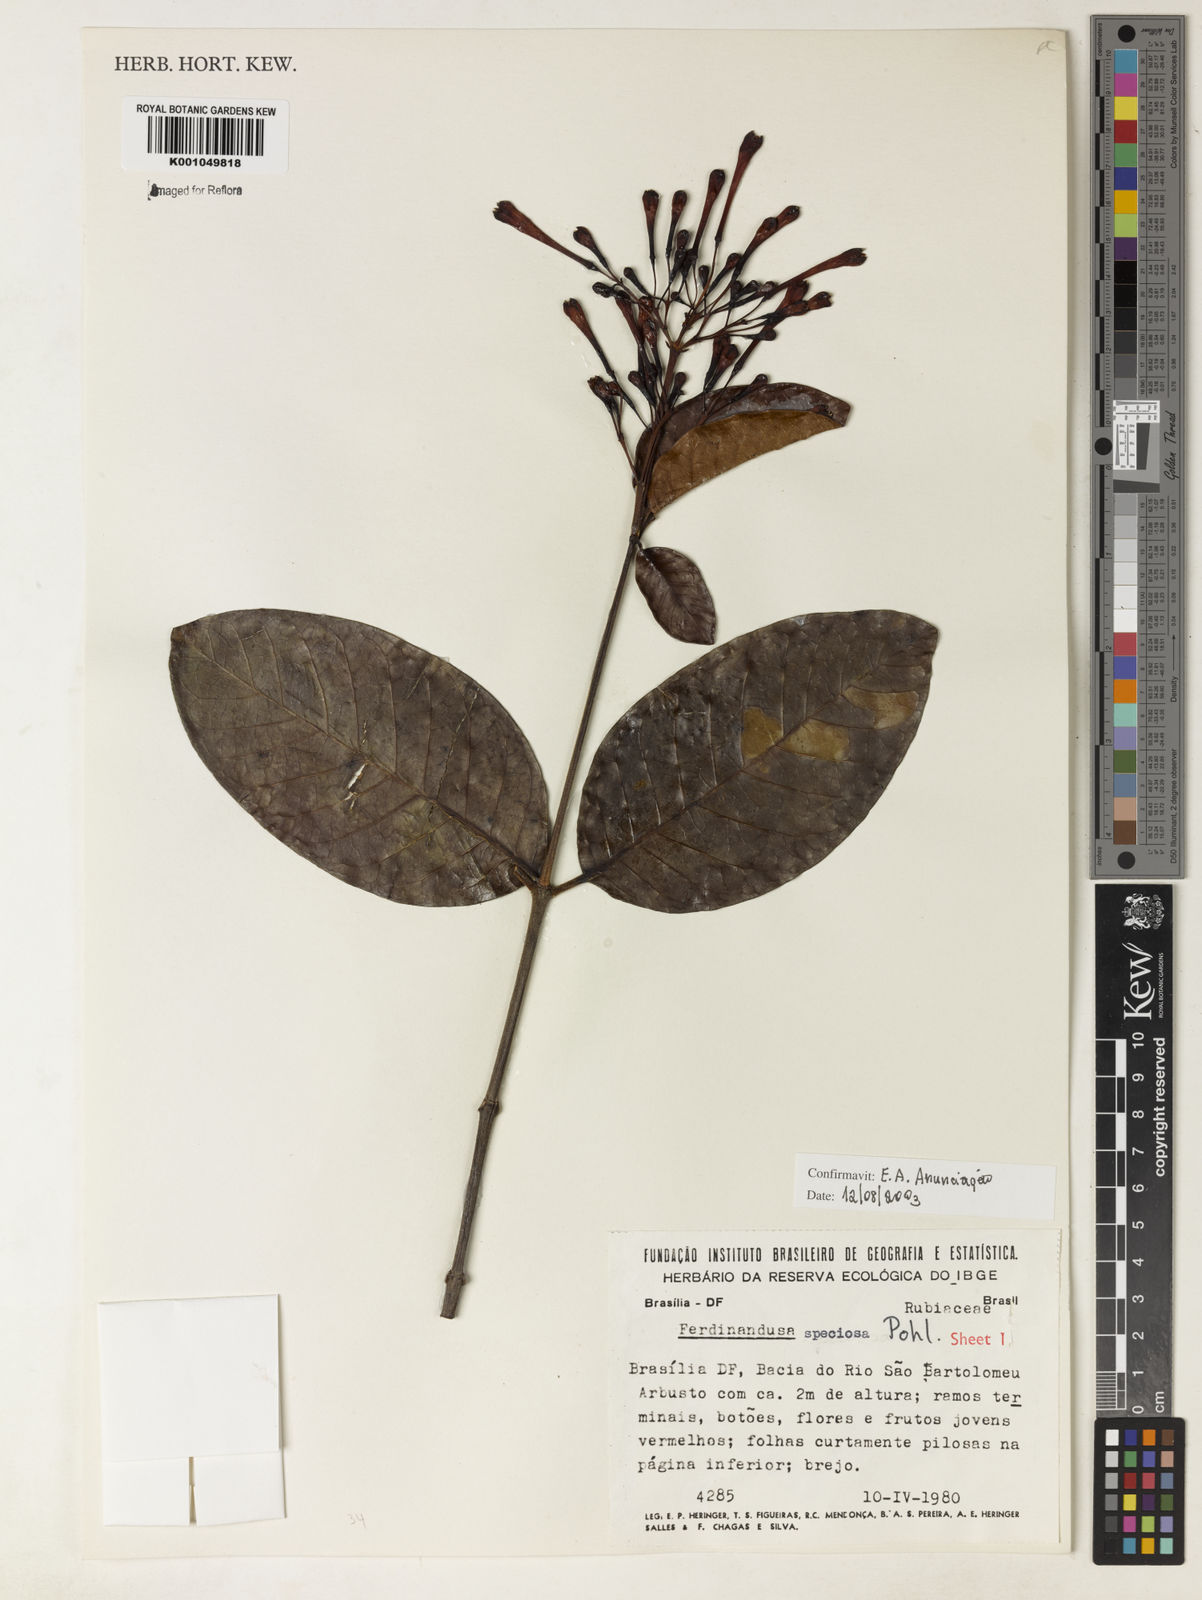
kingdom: Plantae
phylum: Tracheophyta
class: Magnoliopsida
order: Gentianales
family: Rubiaceae
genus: Ferdinandusa
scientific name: Ferdinandusa speciosa
